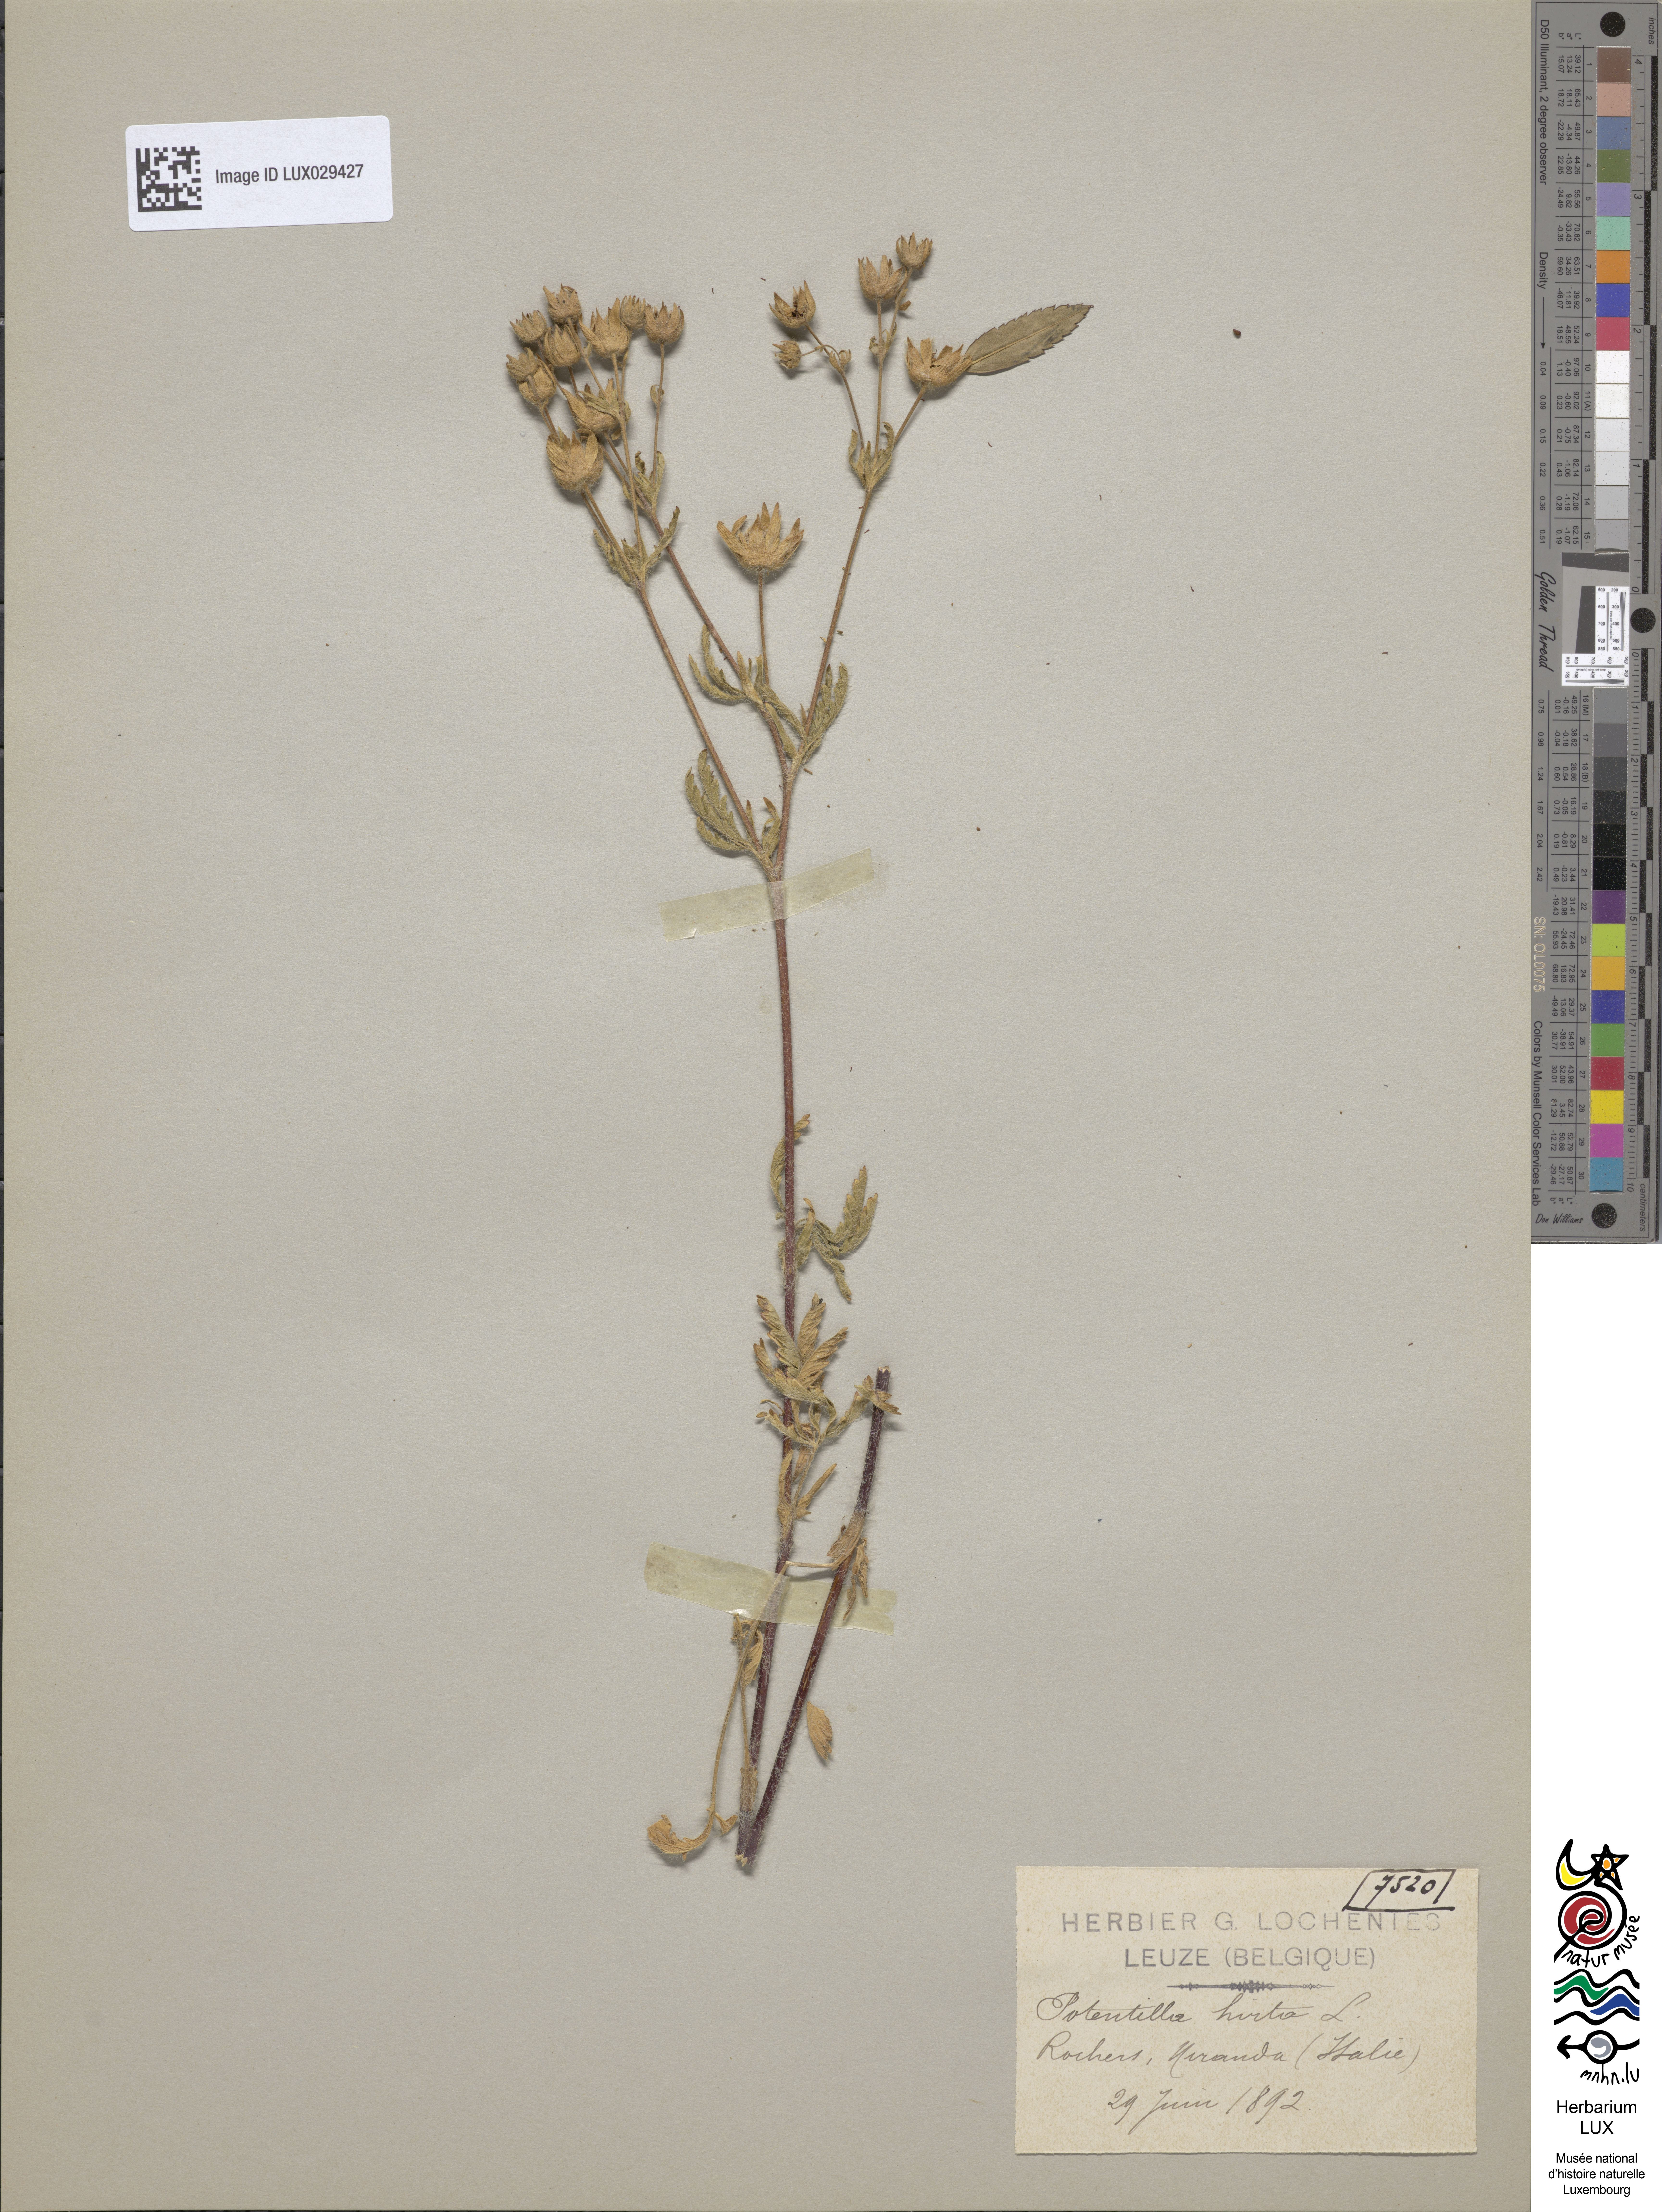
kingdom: Plantae
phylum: Tracheophyta
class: Magnoliopsida
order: Rosales
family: Rosaceae
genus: Potentilla
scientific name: Potentilla hirta
